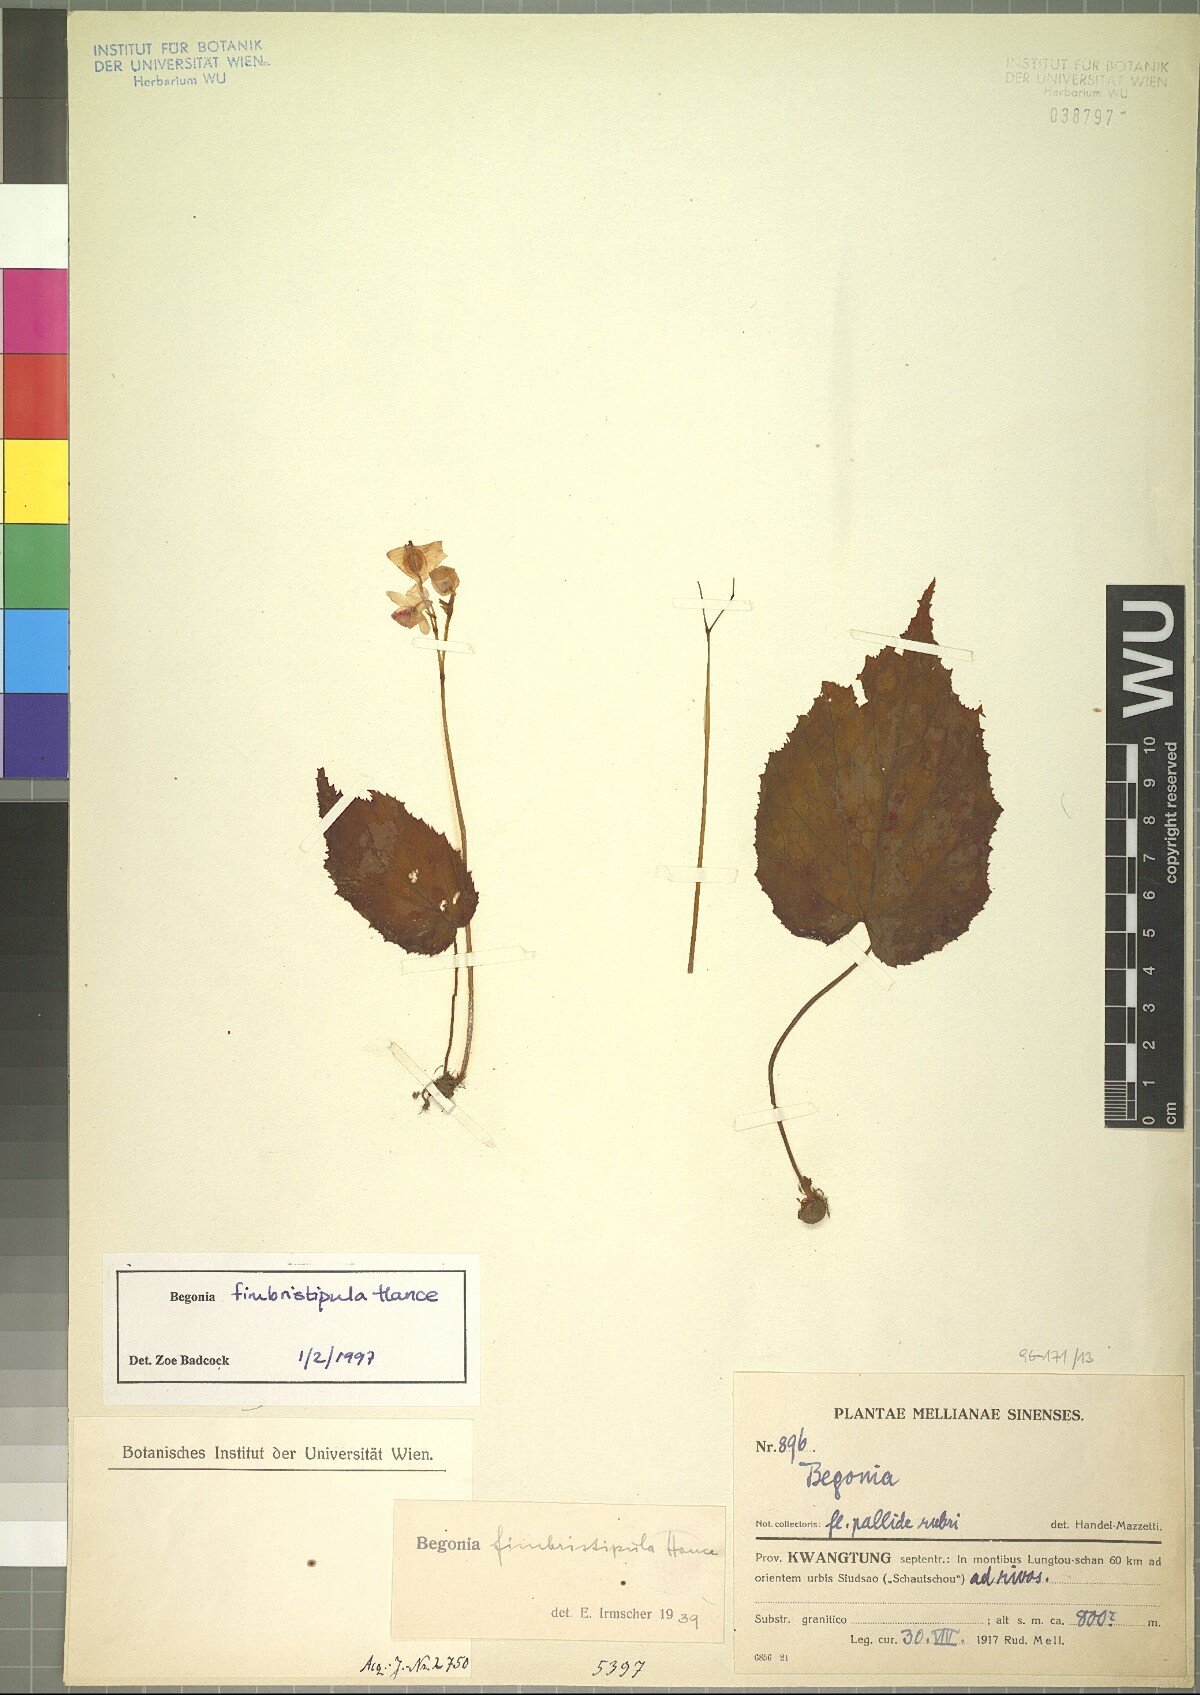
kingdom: Plantae
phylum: Tracheophyta
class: Magnoliopsida
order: Cucurbitales
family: Begoniaceae
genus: Begonia
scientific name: Begonia fimbristipula
